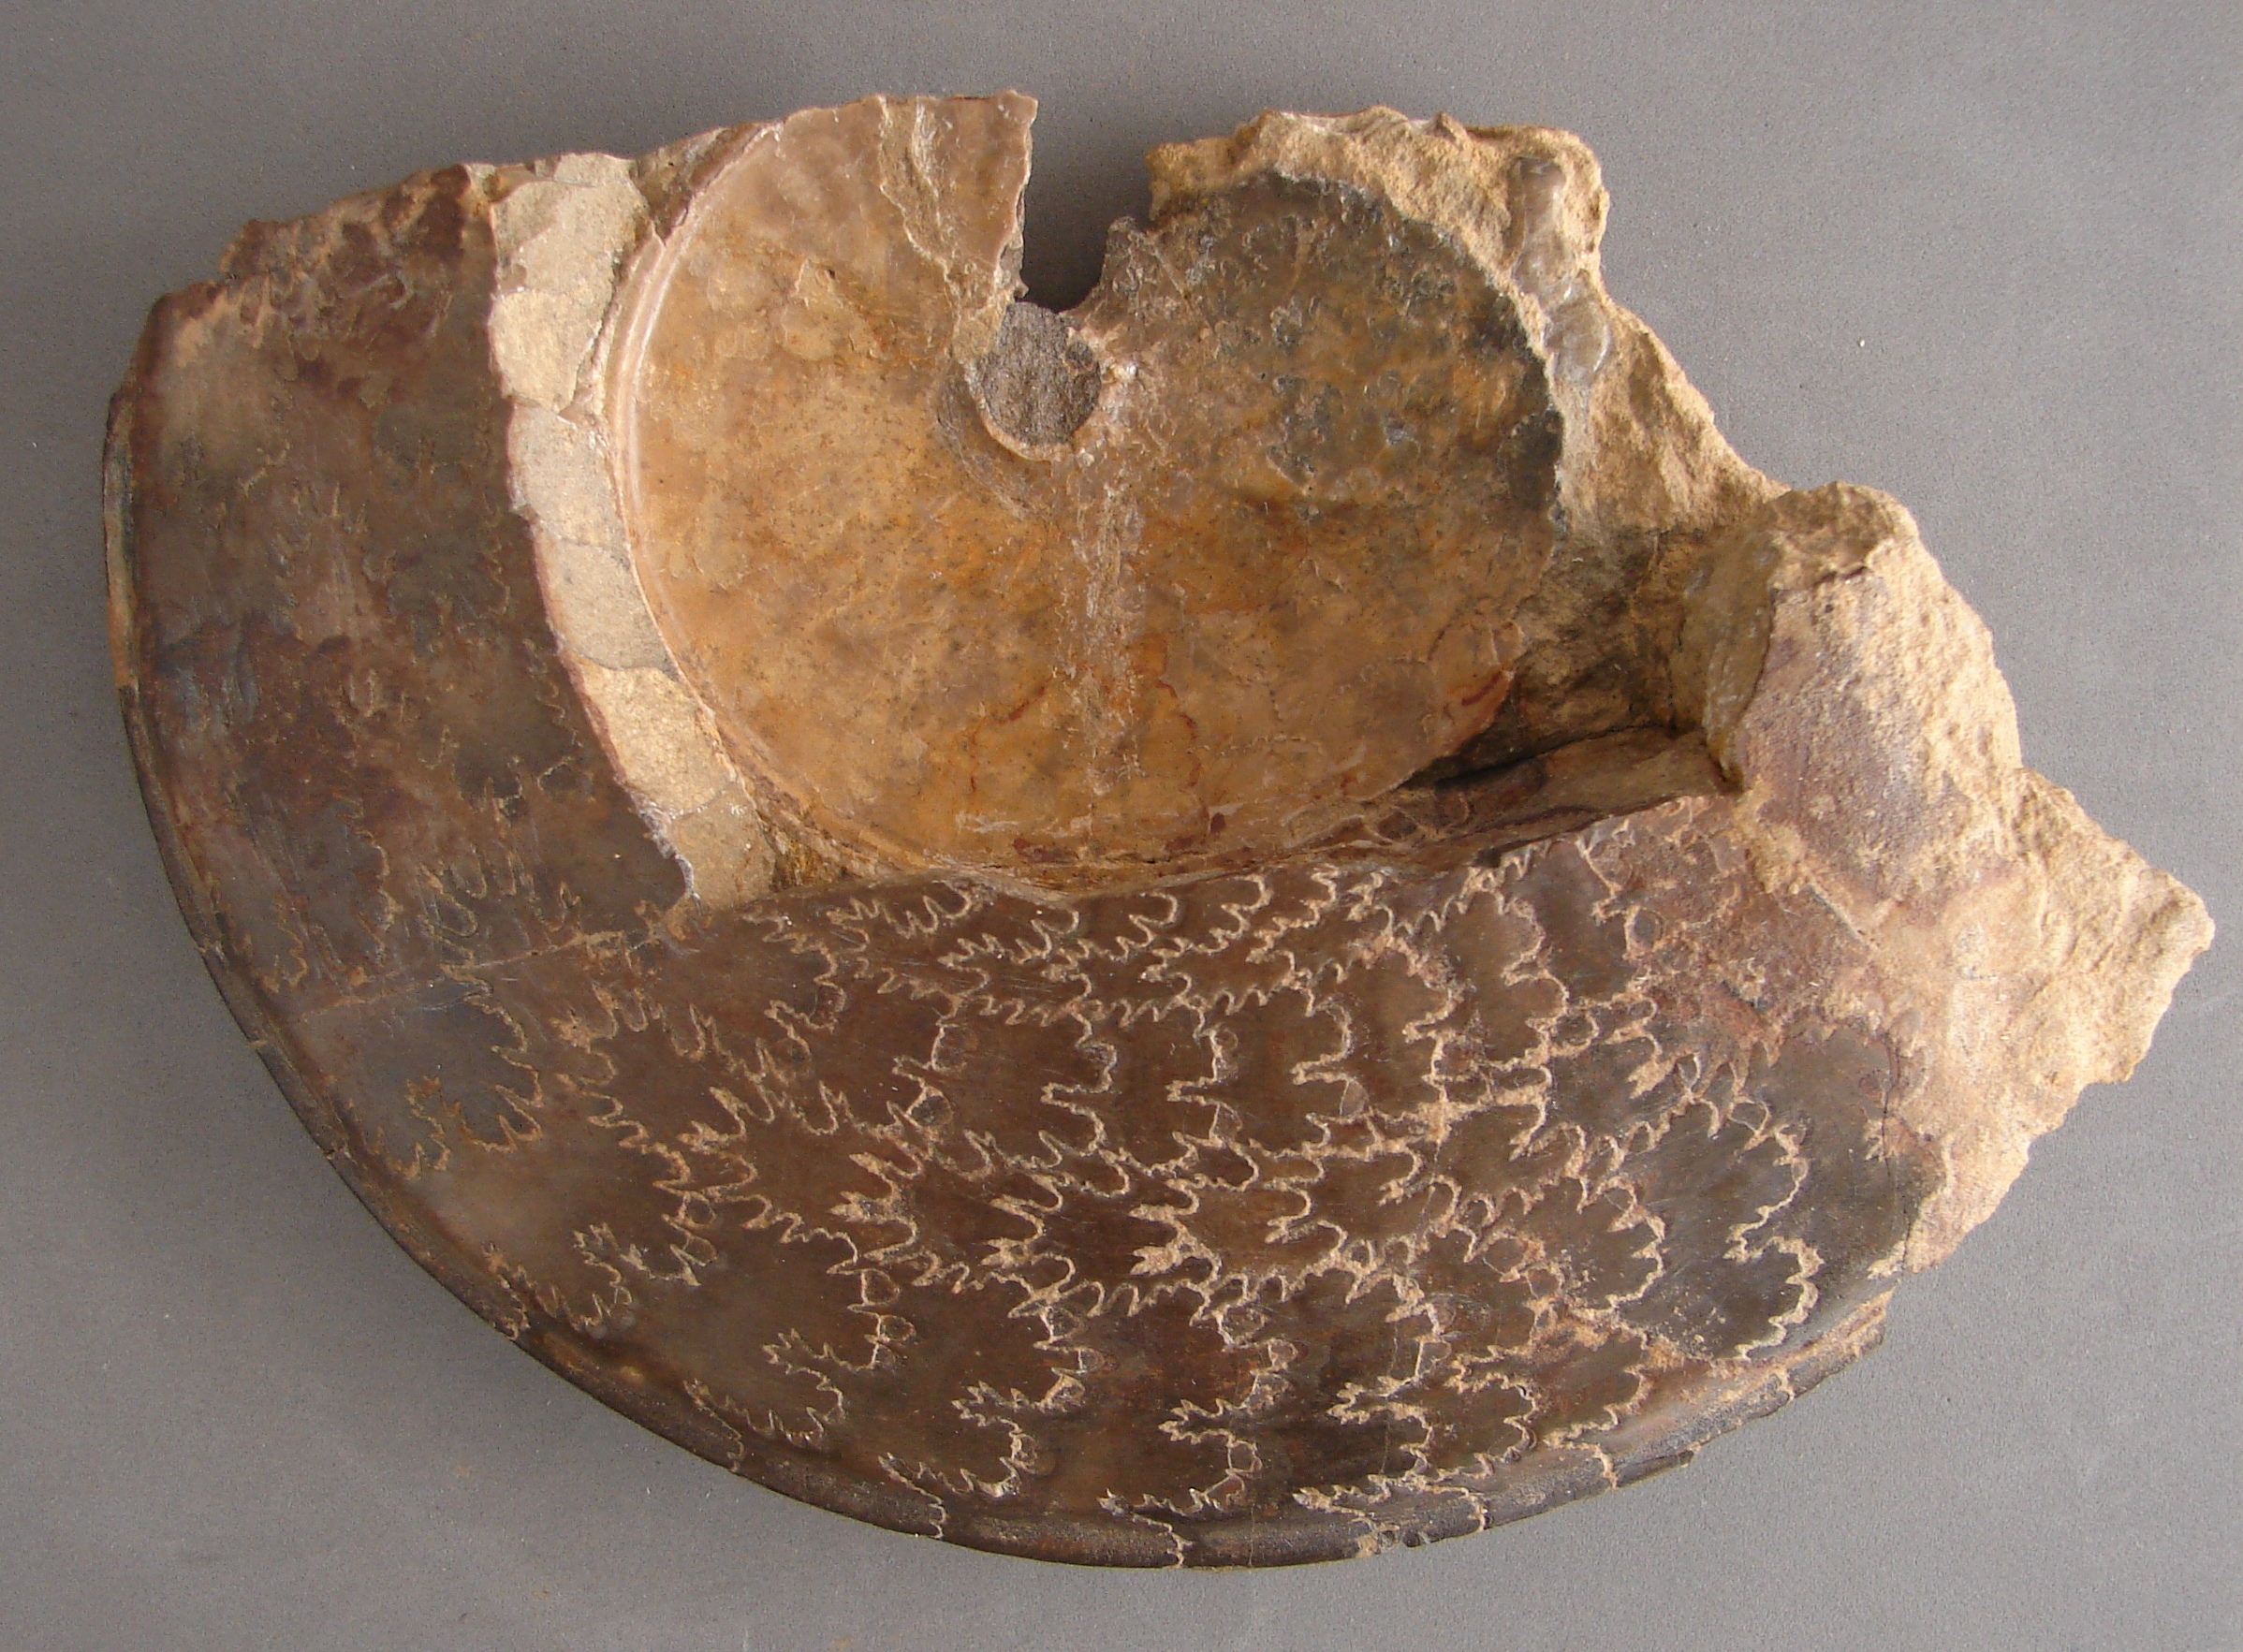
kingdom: Animalia
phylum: Mollusca
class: Cephalopoda
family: Graphoceratidae
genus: Hyperlioceras
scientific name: Hyperlioceras
